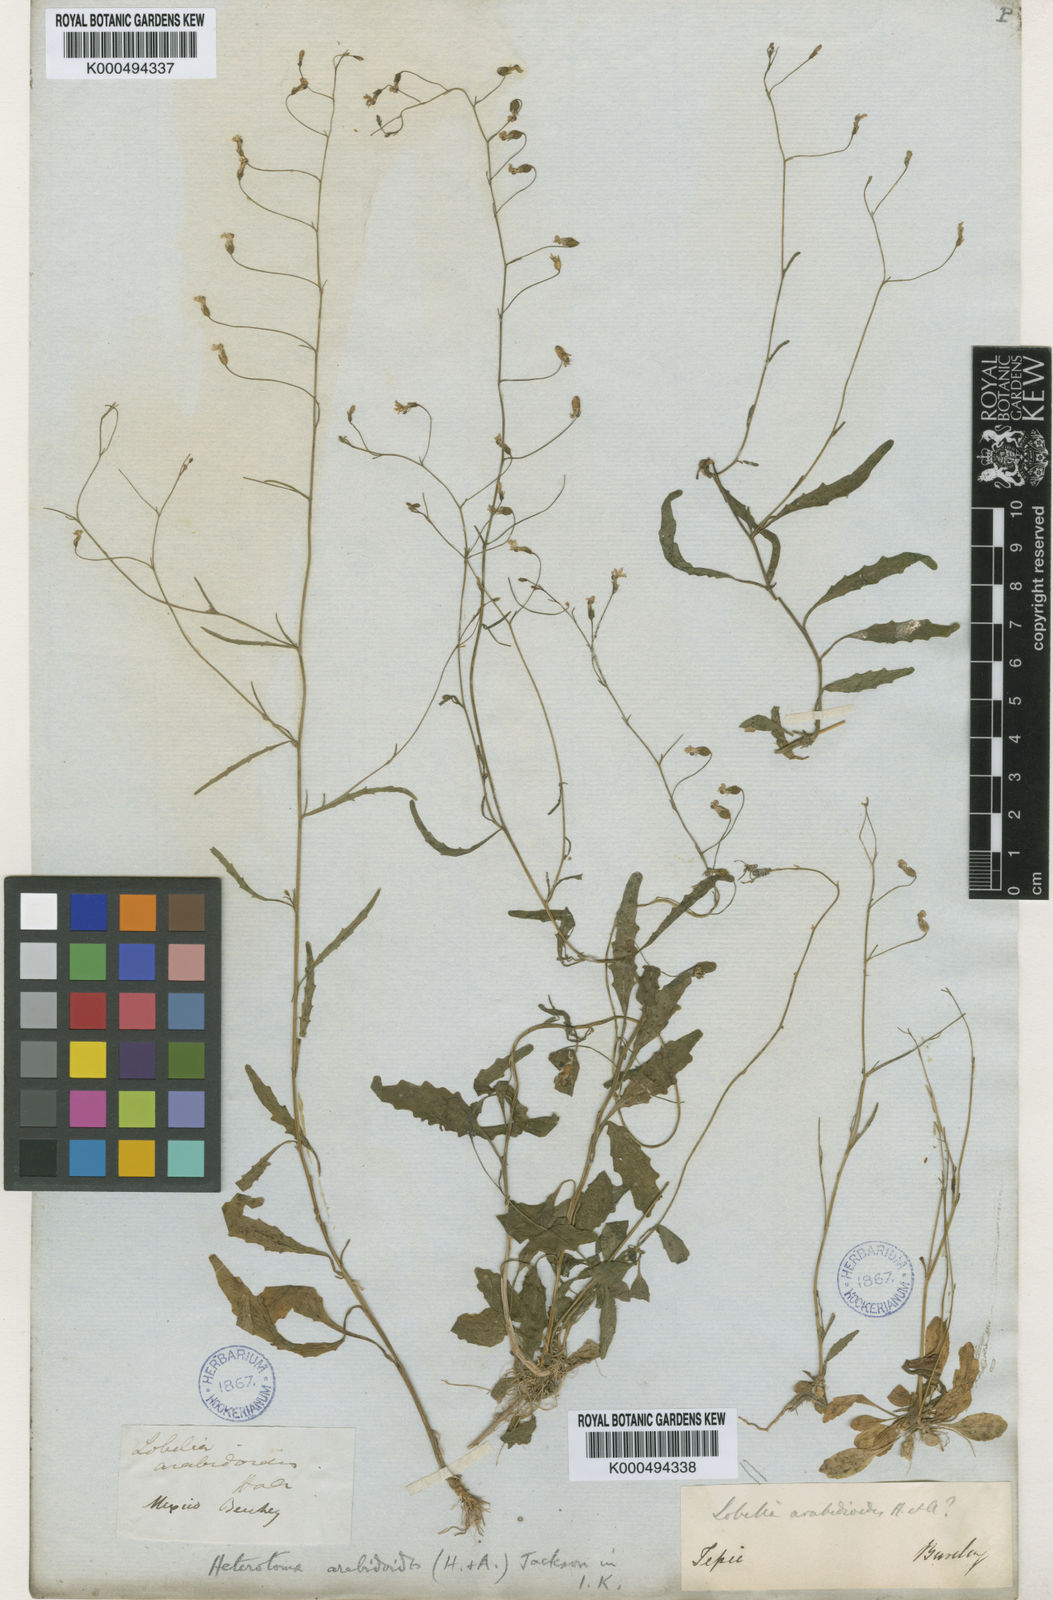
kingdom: Plantae
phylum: Tracheophyta
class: Magnoliopsida
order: Asterales
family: Campanulaceae
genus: Lobelia
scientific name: Lobelia flexuosa
